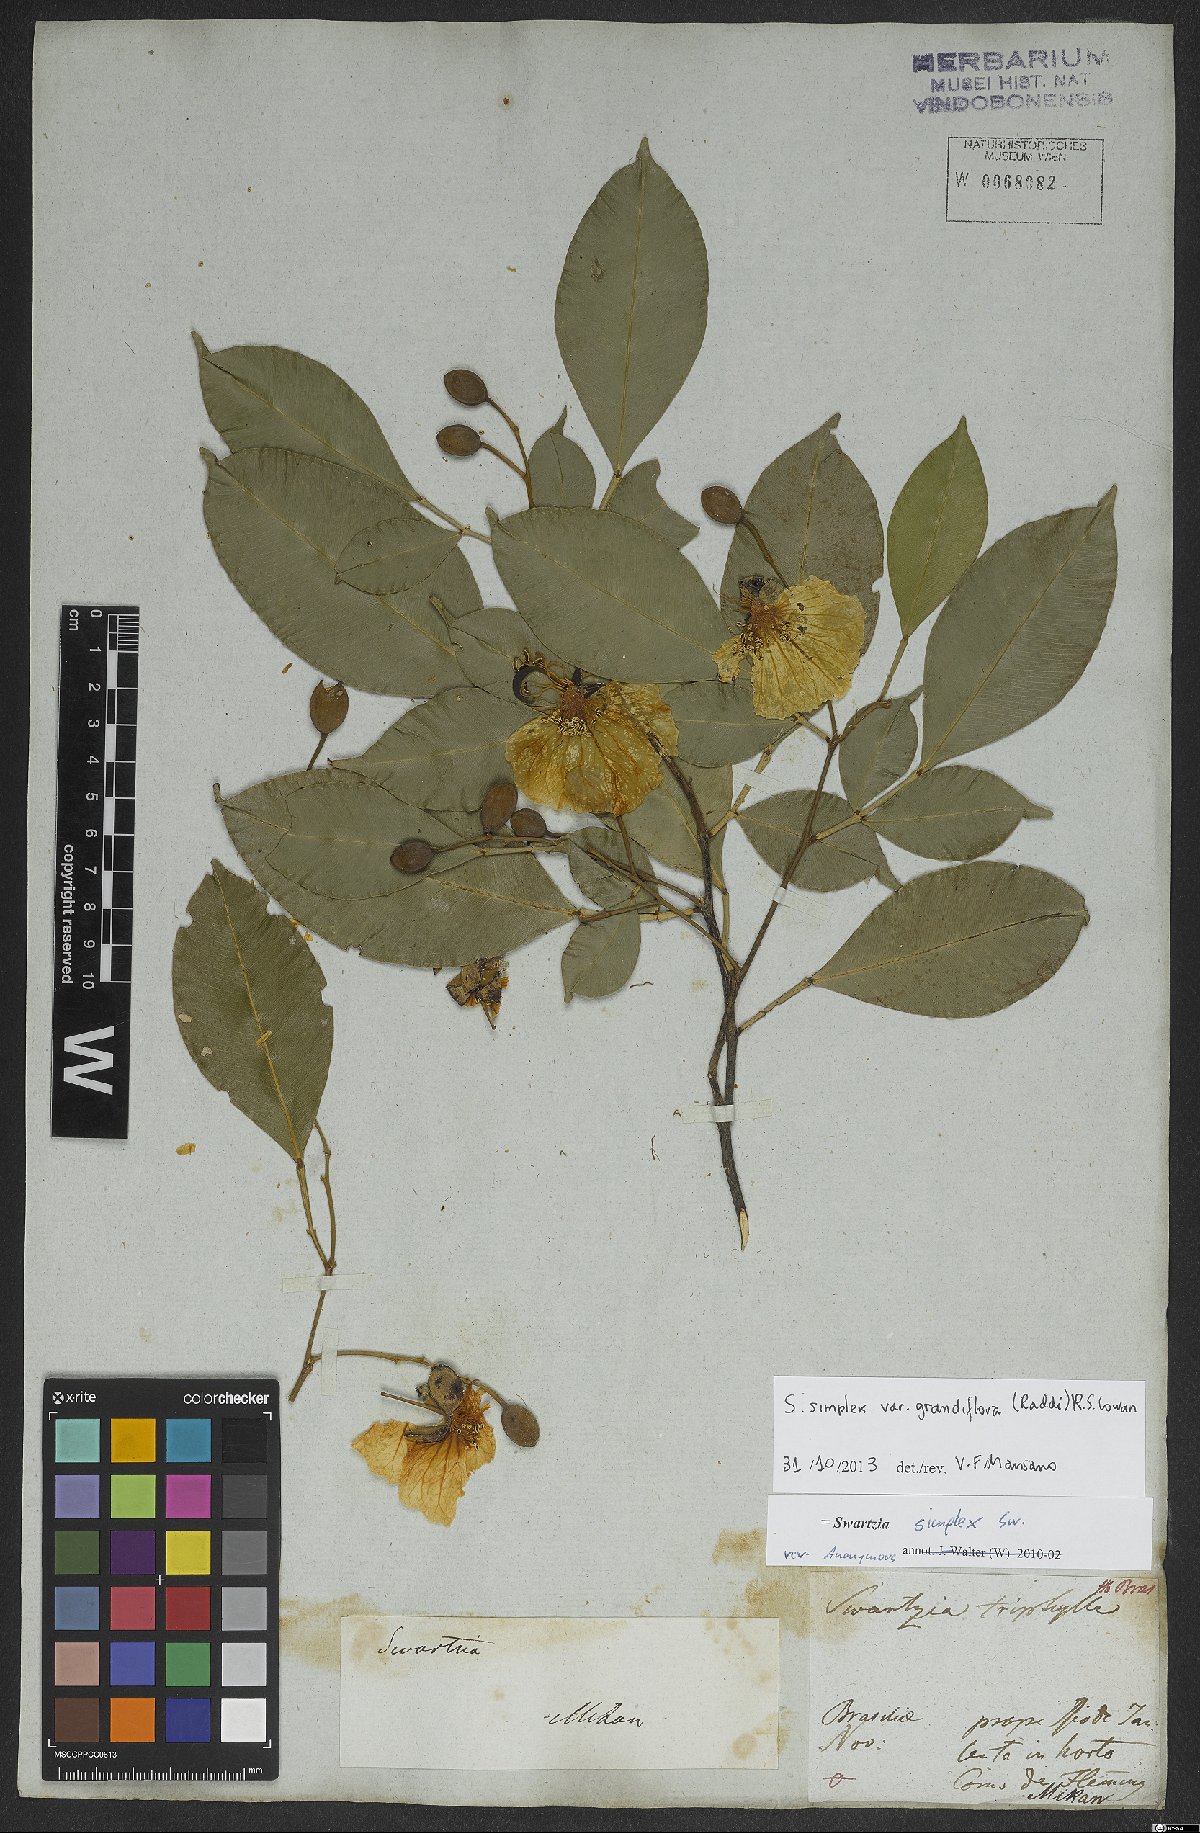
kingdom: Plantae
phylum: Tracheophyta
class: Magnoliopsida
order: Fabales
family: Fabaceae
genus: Swartzia
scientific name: Swartzia simplex
